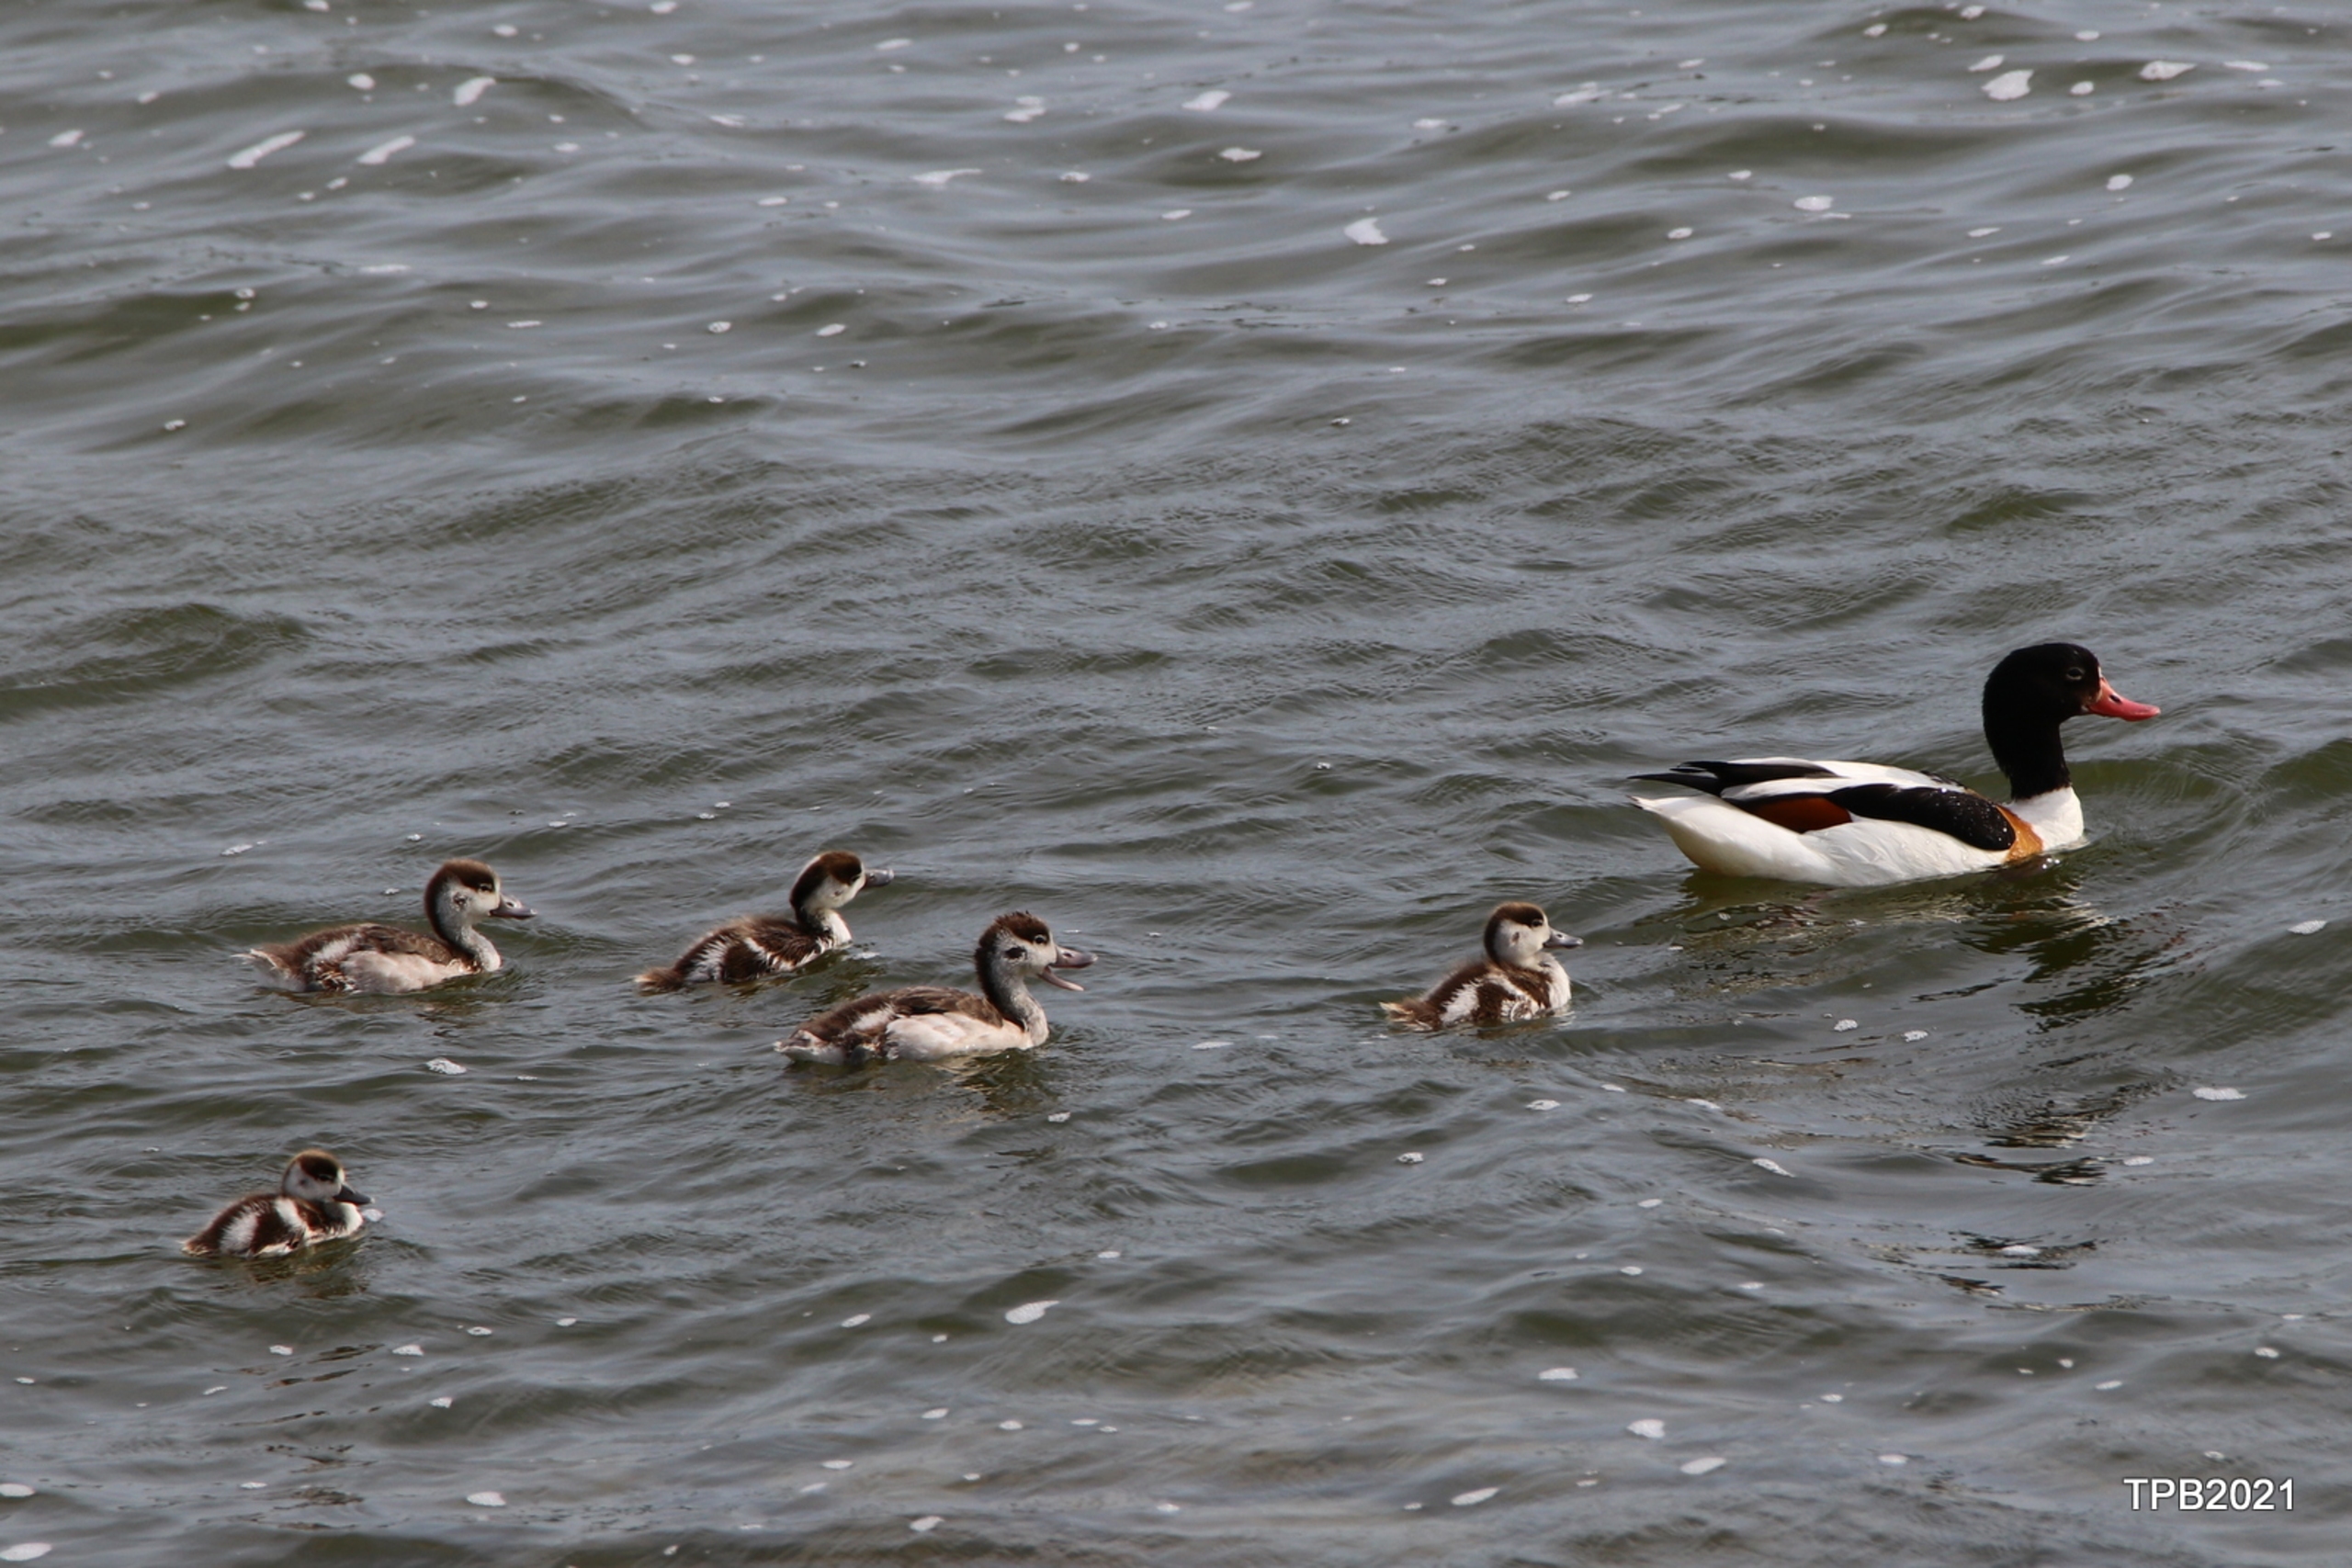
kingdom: Animalia
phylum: Chordata
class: Aves
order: Anseriformes
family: Anatidae
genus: Tadorna
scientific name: Tadorna tadorna
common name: Gravand
